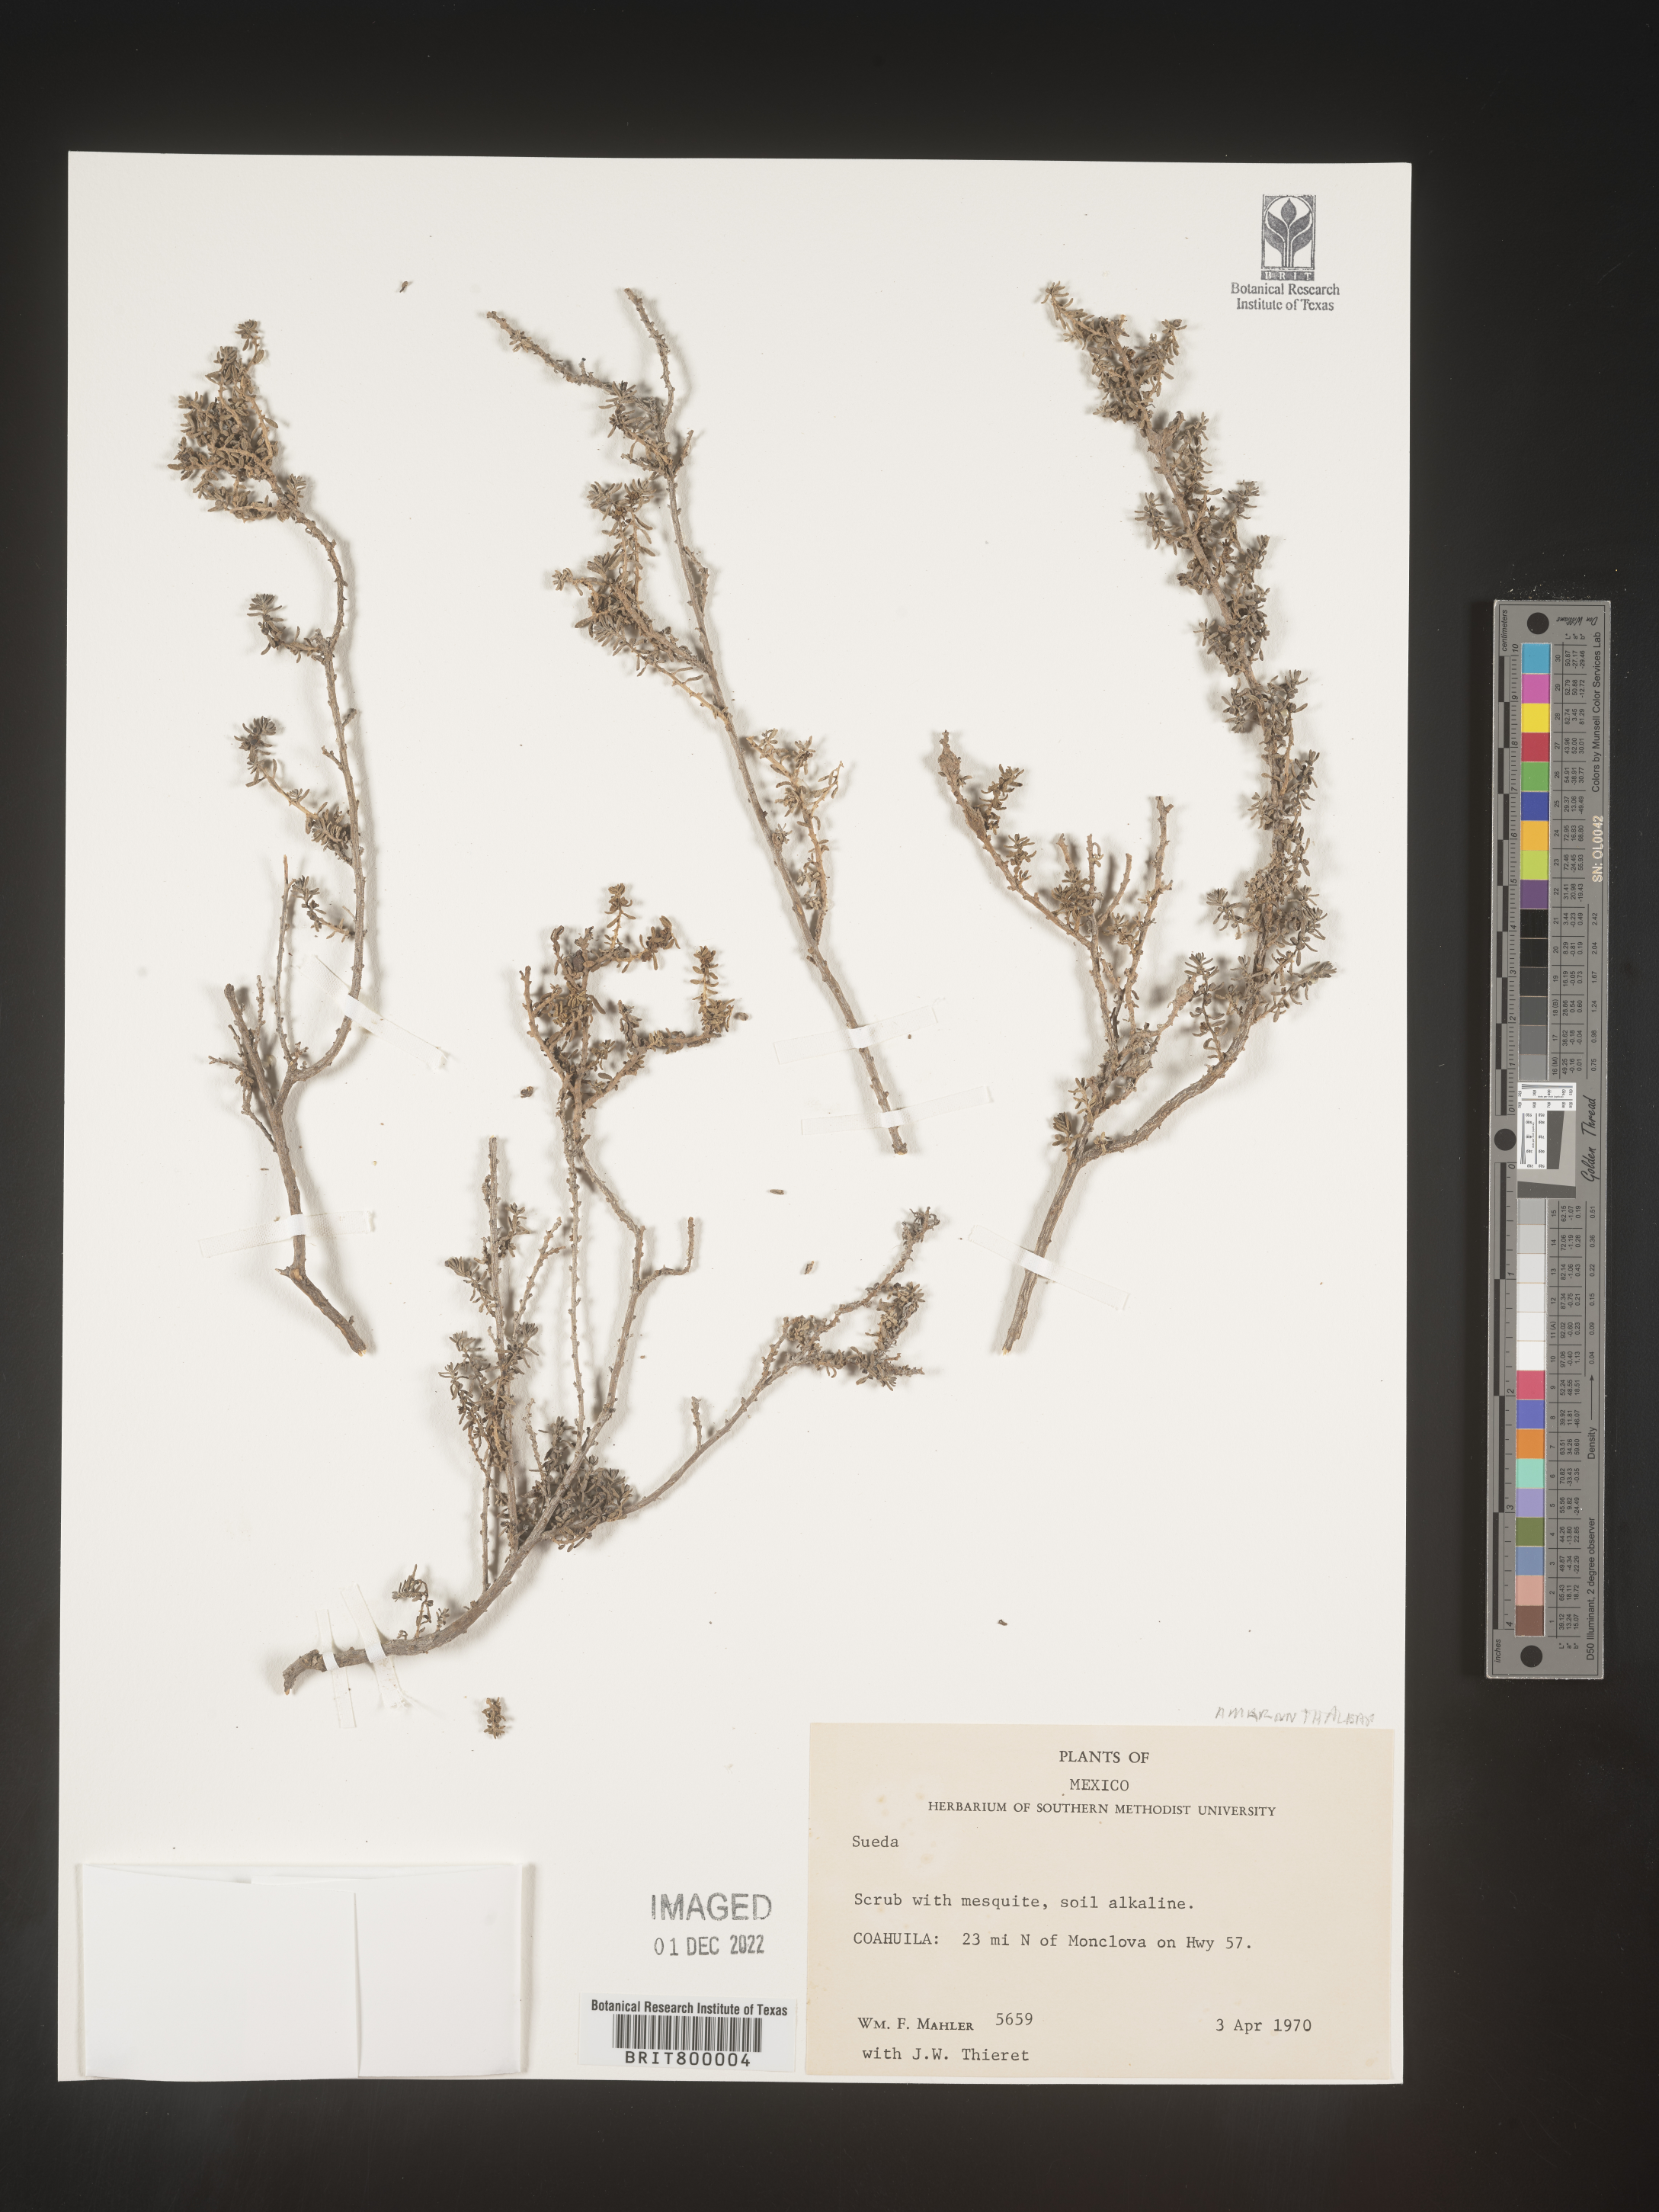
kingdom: Plantae
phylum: Tracheophyta
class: Magnoliopsida
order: Caryophyllales
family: Amaranthaceae
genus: Suaeda
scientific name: Suaeda
